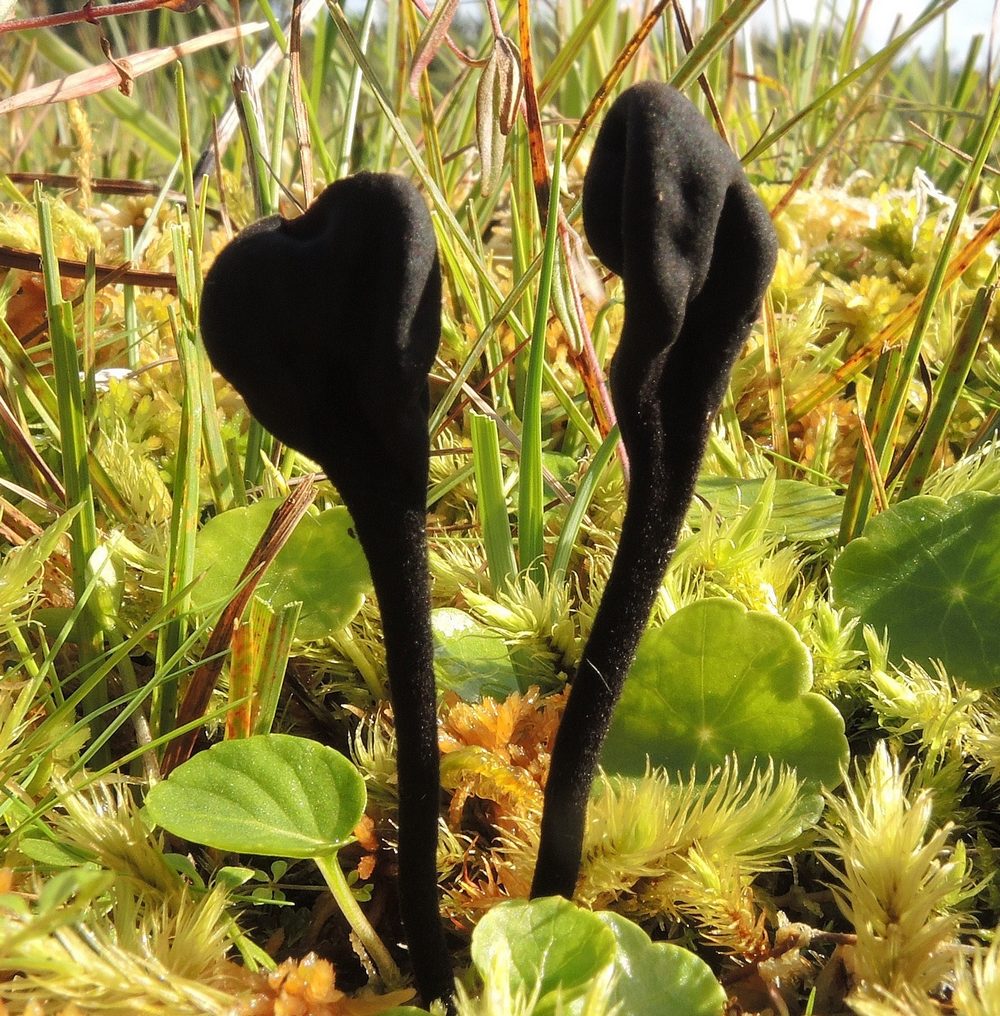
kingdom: Fungi
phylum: Ascomycota
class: Geoglossomycetes
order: Geoglossales
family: Geoglossaceae
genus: Trichoglossum
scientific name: Trichoglossum hirsutum
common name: håret jordtunge
